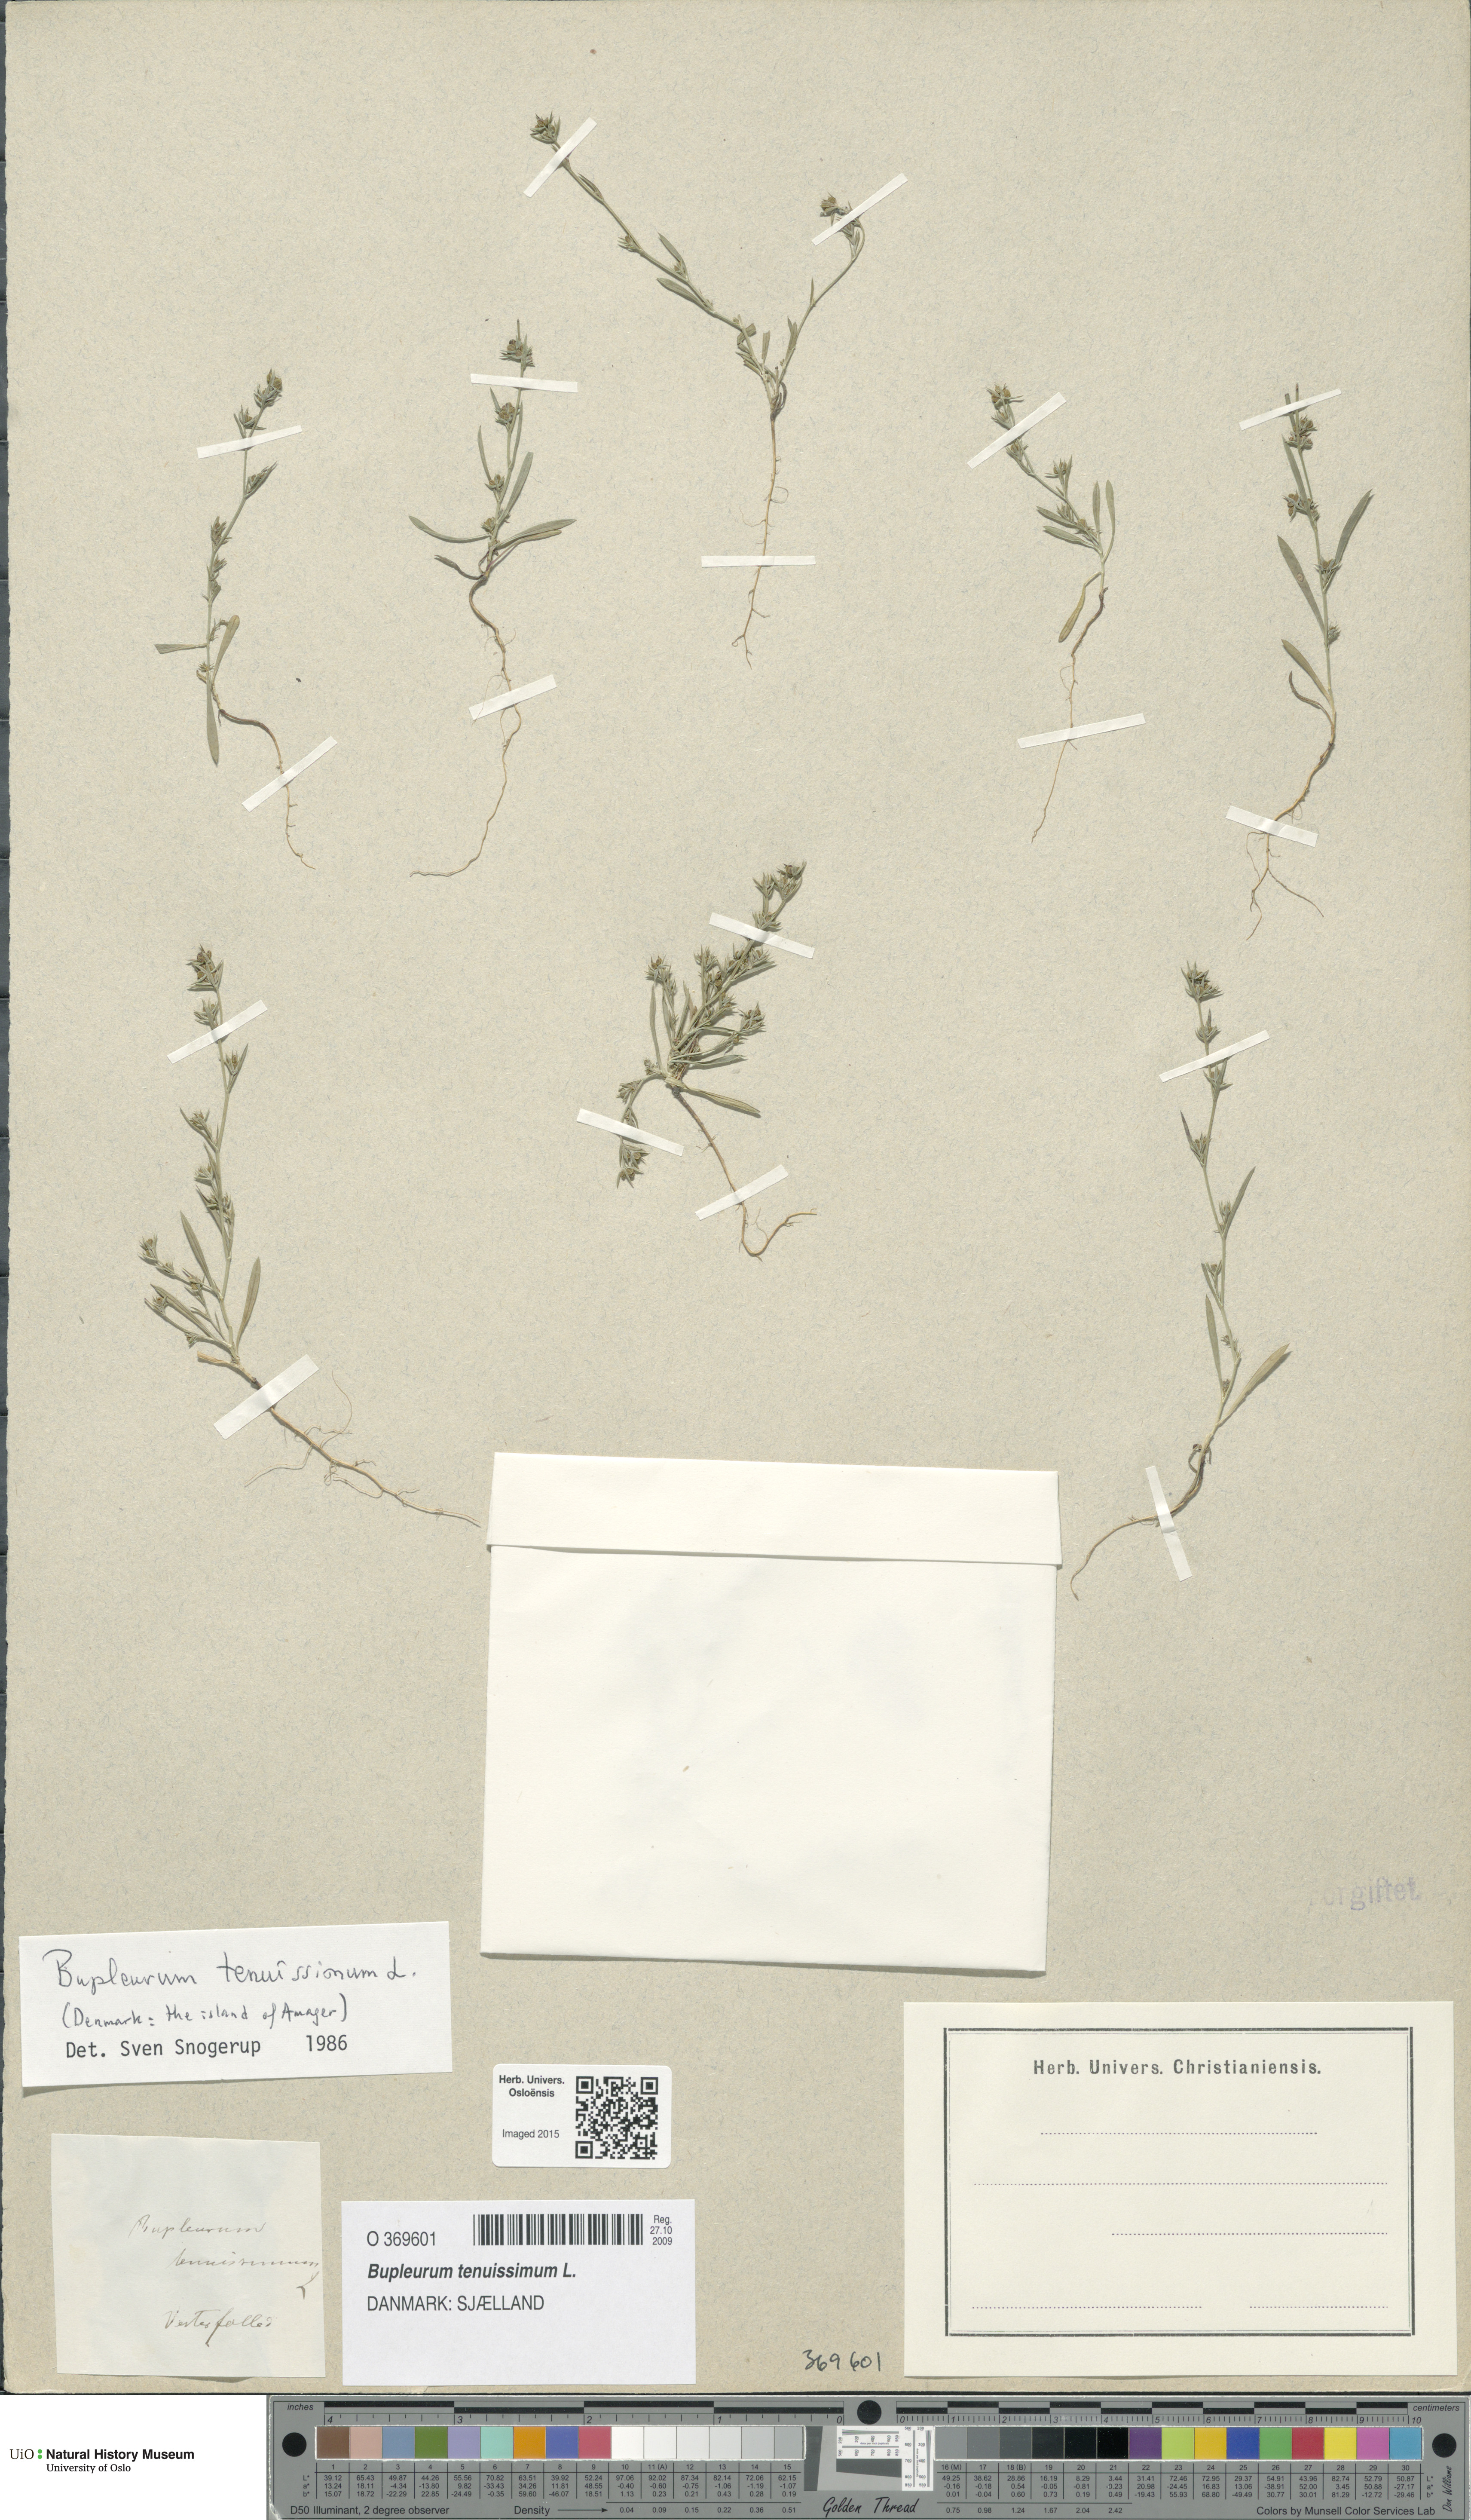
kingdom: Plantae
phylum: Tracheophyta
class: Magnoliopsida
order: Apiales
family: Apiaceae
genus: Bupleurum
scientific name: Bupleurum tenuissimum
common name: Slender hare's-ear
